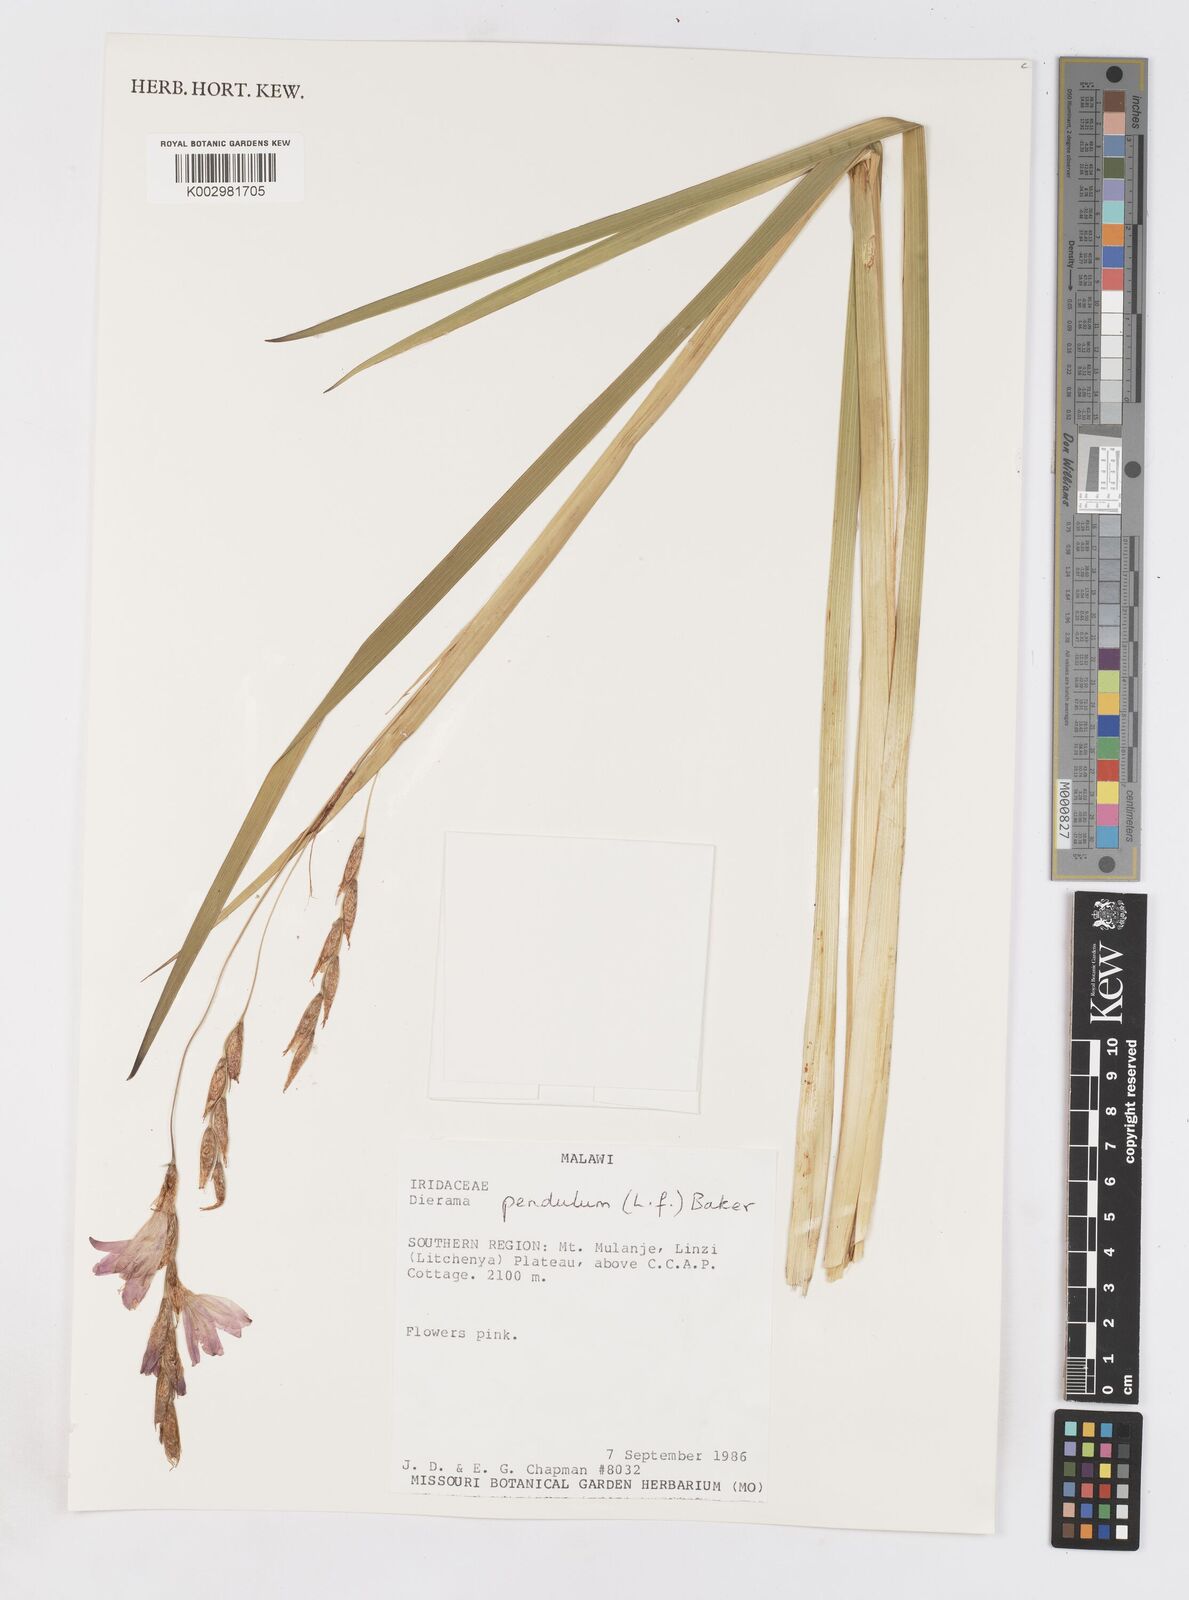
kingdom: Plantae
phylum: Tracheophyta
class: Liliopsida
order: Asparagales
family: Iridaceae
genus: Dierama
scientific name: Dierama cupuliflorum
